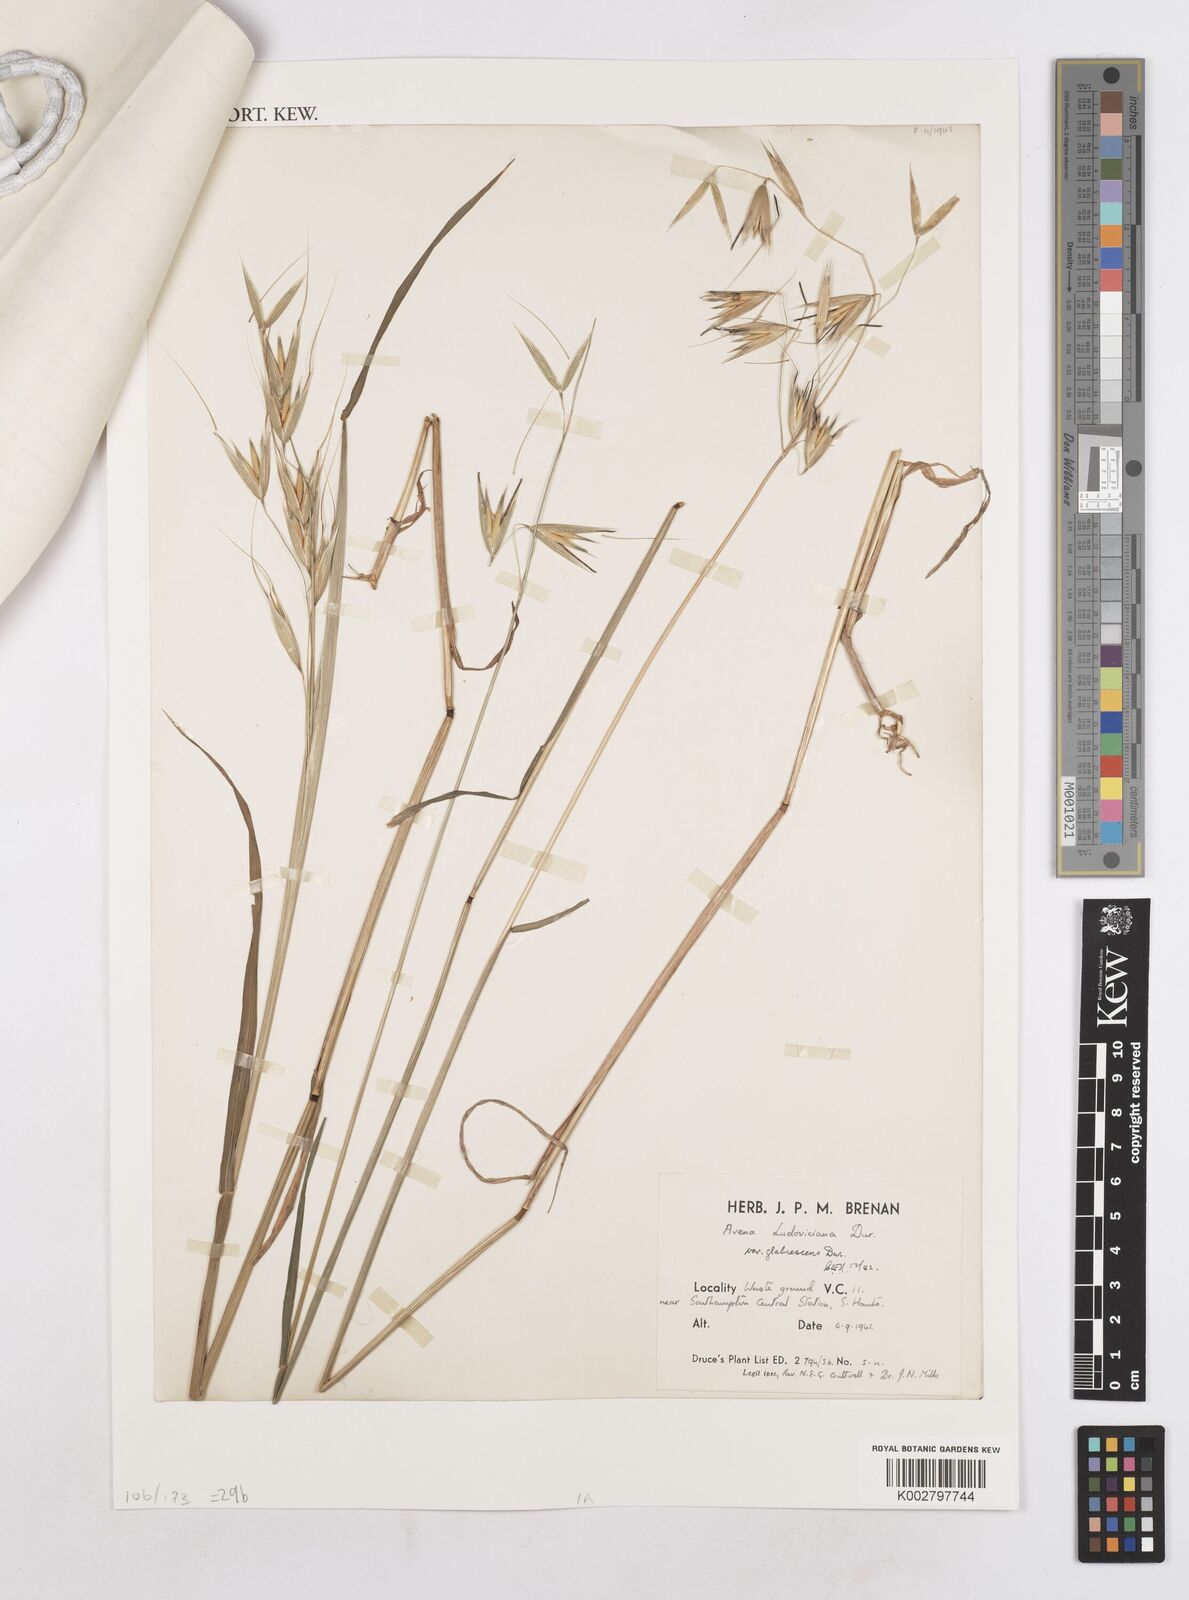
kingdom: Plantae
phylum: Tracheophyta
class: Liliopsida
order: Poales
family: Poaceae
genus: Avena
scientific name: Avena sterilis
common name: Animated oat
